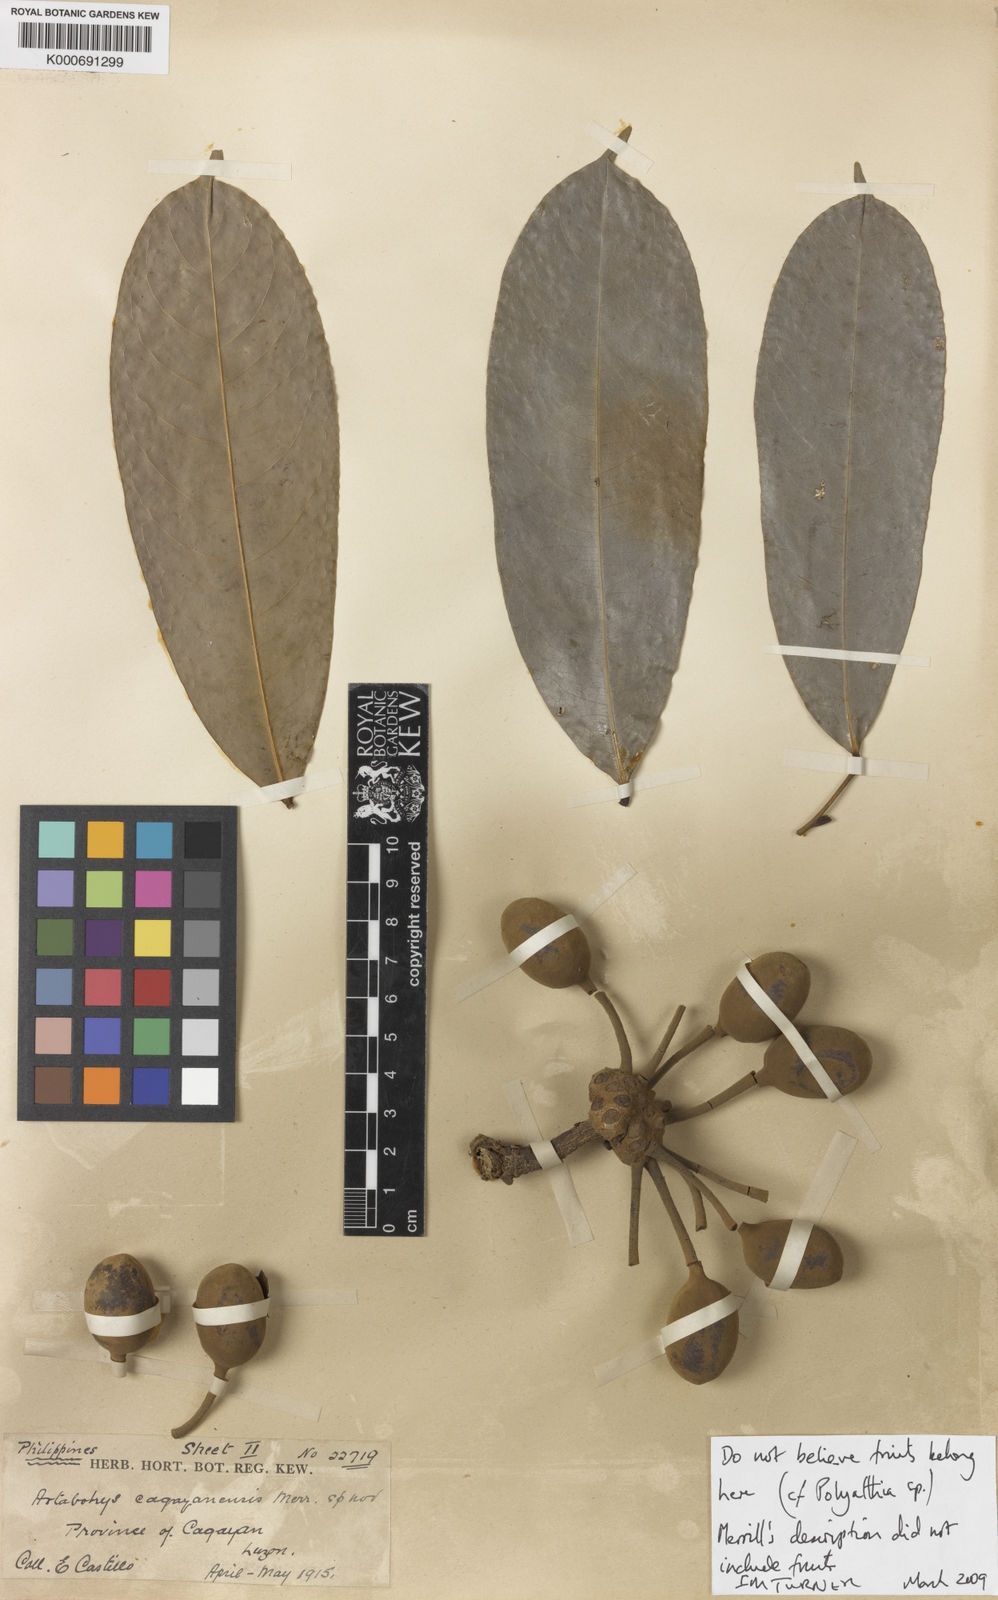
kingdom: Plantae
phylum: Tracheophyta
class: Magnoliopsida
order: Magnoliales
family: Annonaceae
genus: Artabotrys
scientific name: Artabotrys cagayanensis
